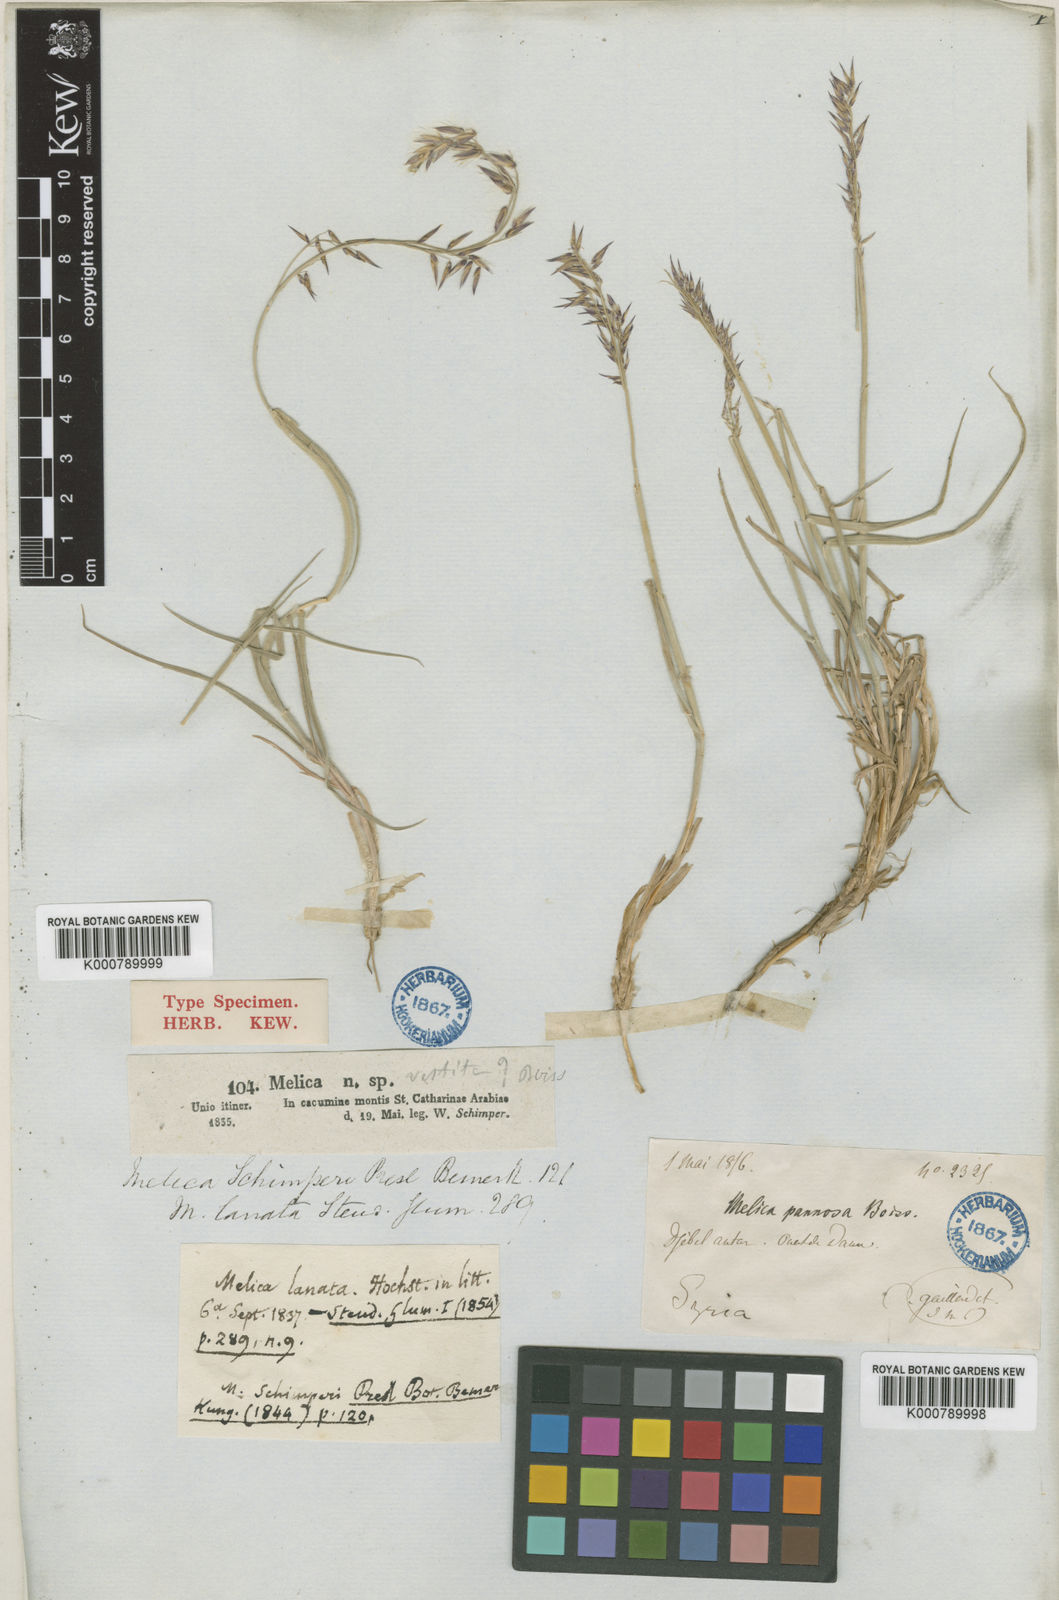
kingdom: Plantae
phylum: Tracheophyta
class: Liliopsida
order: Poales
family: Poaceae
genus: Melica
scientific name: Melica persica
